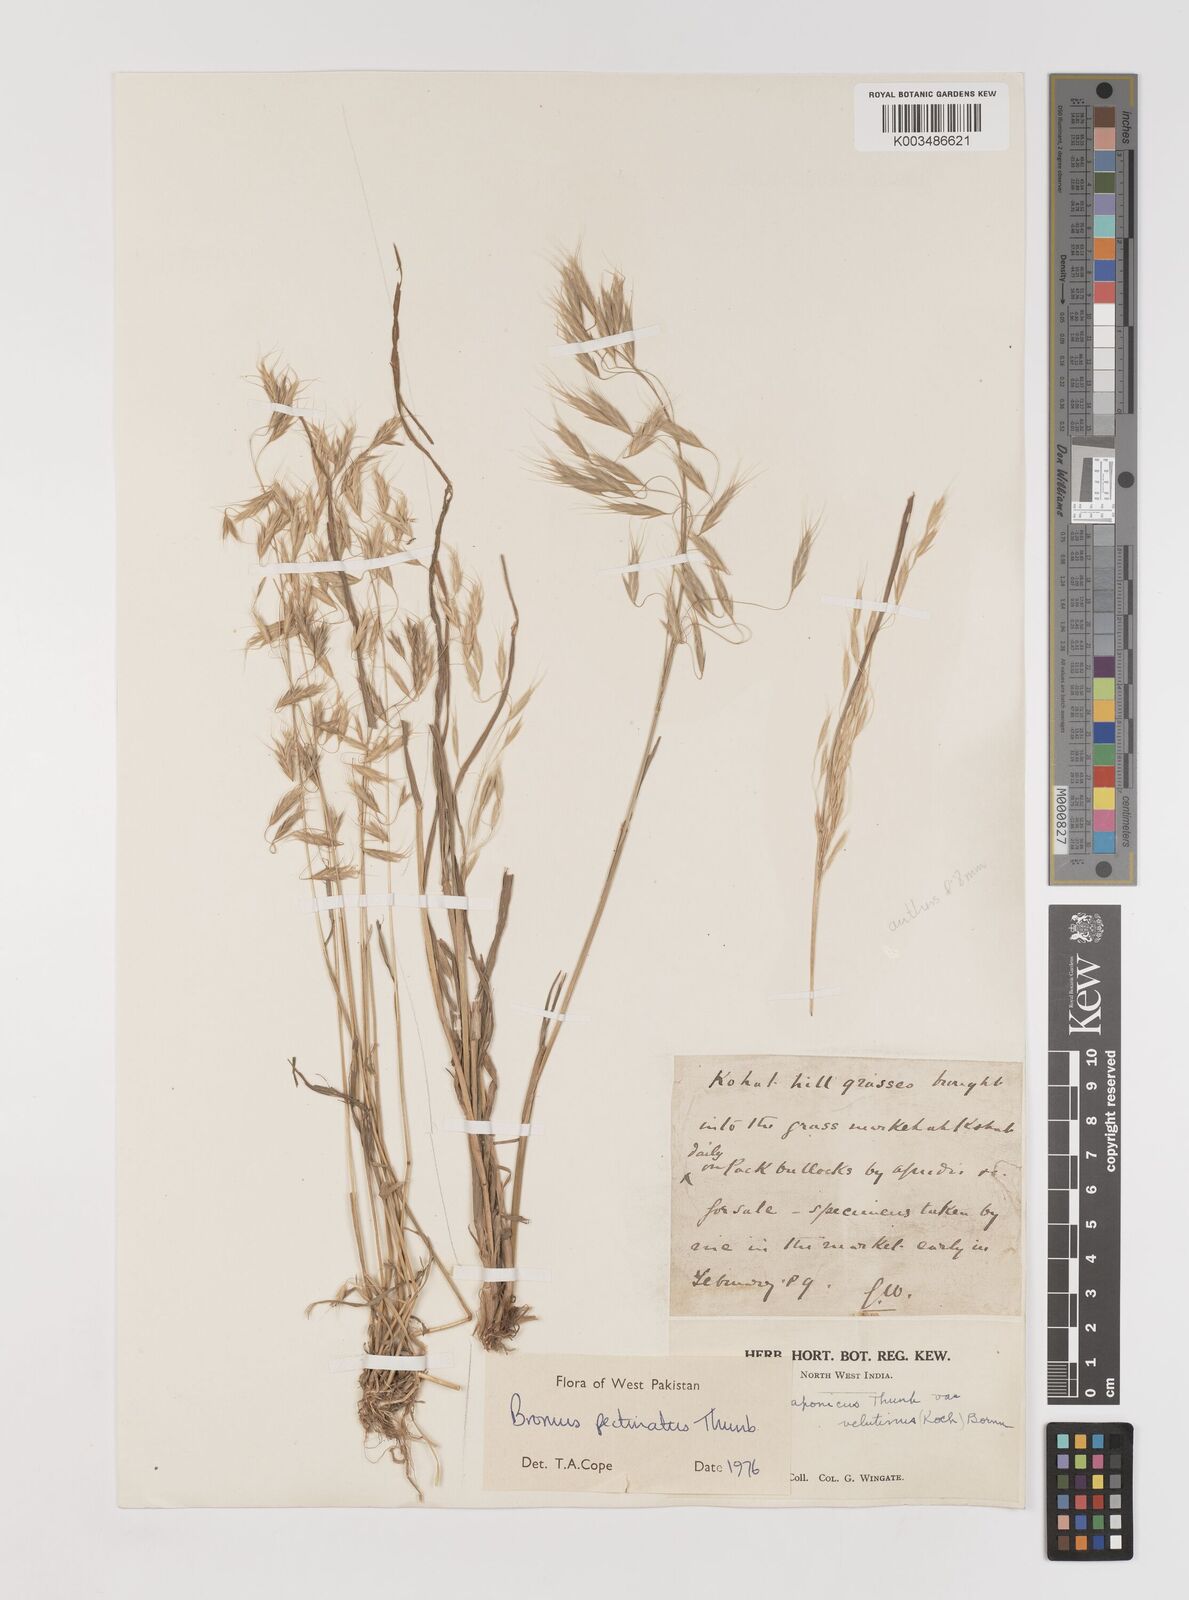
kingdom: Plantae
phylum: Tracheophyta
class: Liliopsida
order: Poales
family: Poaceae
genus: Bromus
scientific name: Bromus pectinatus
